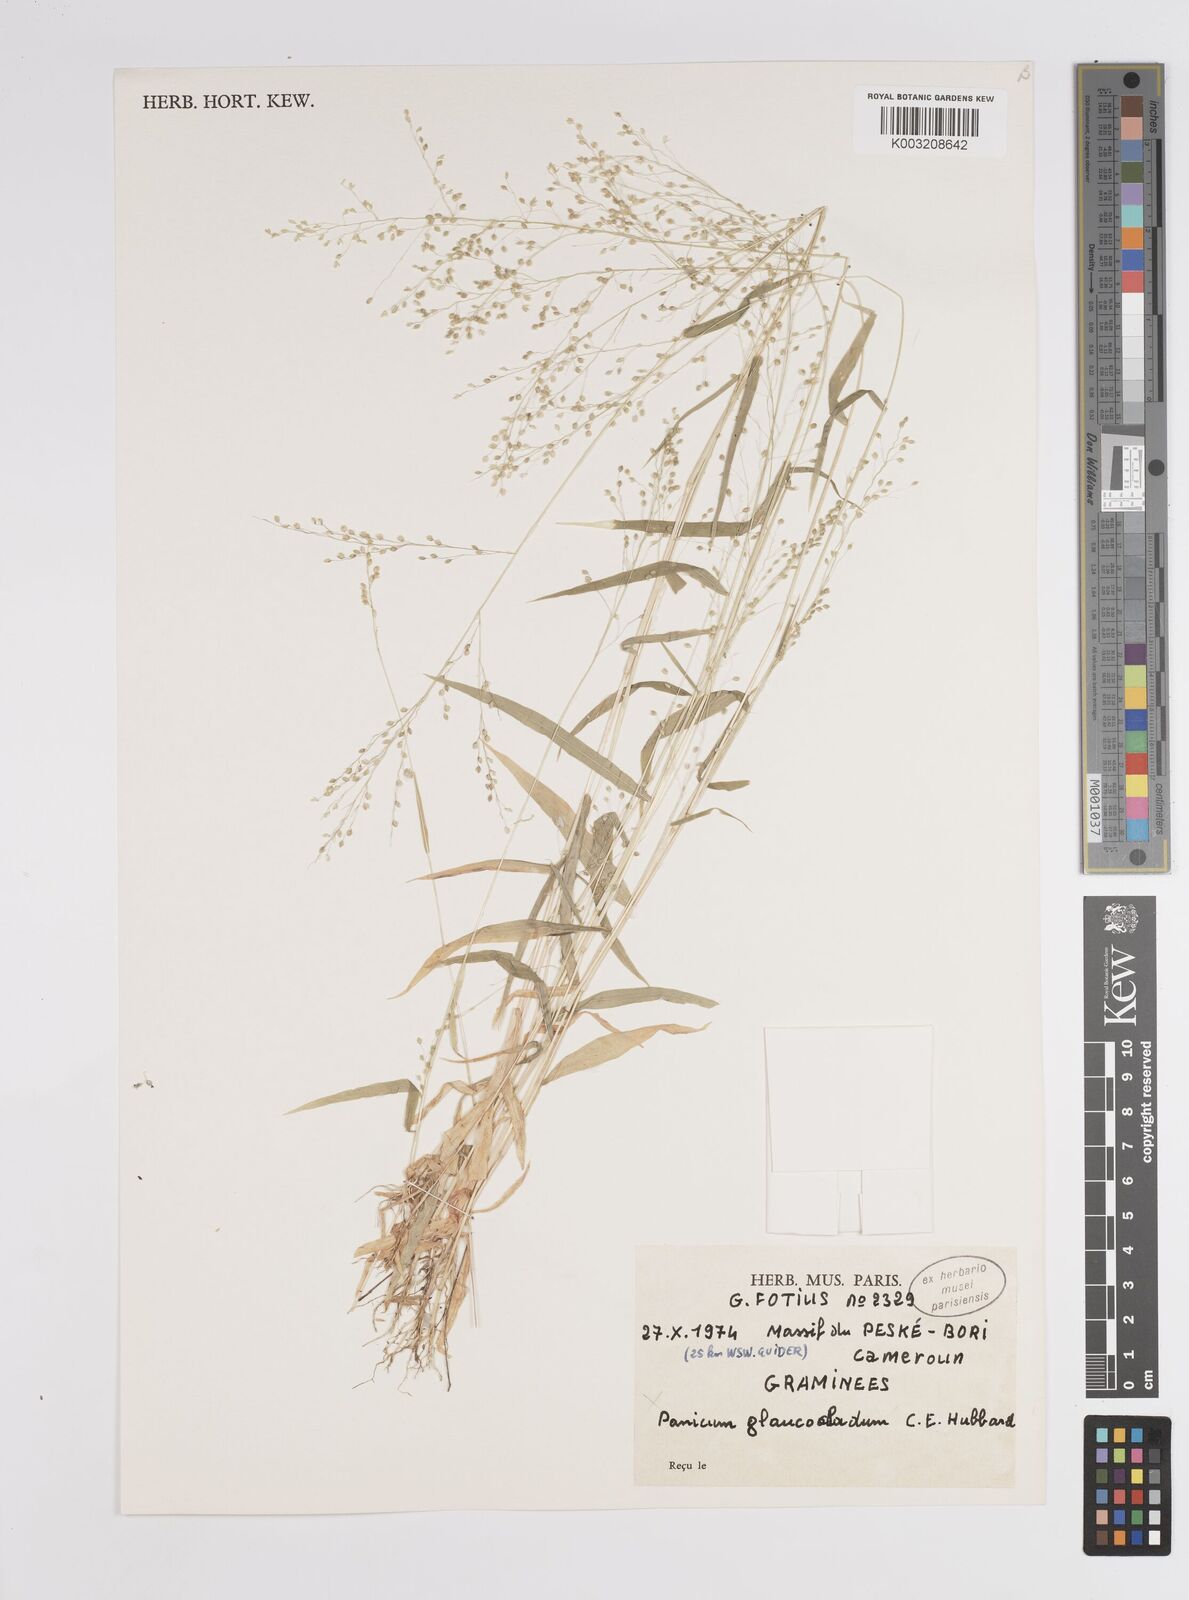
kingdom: Plantae
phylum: Tracheophyta
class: Liliopsida
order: Poales
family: Poaceae
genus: Panicum
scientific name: Panicum
